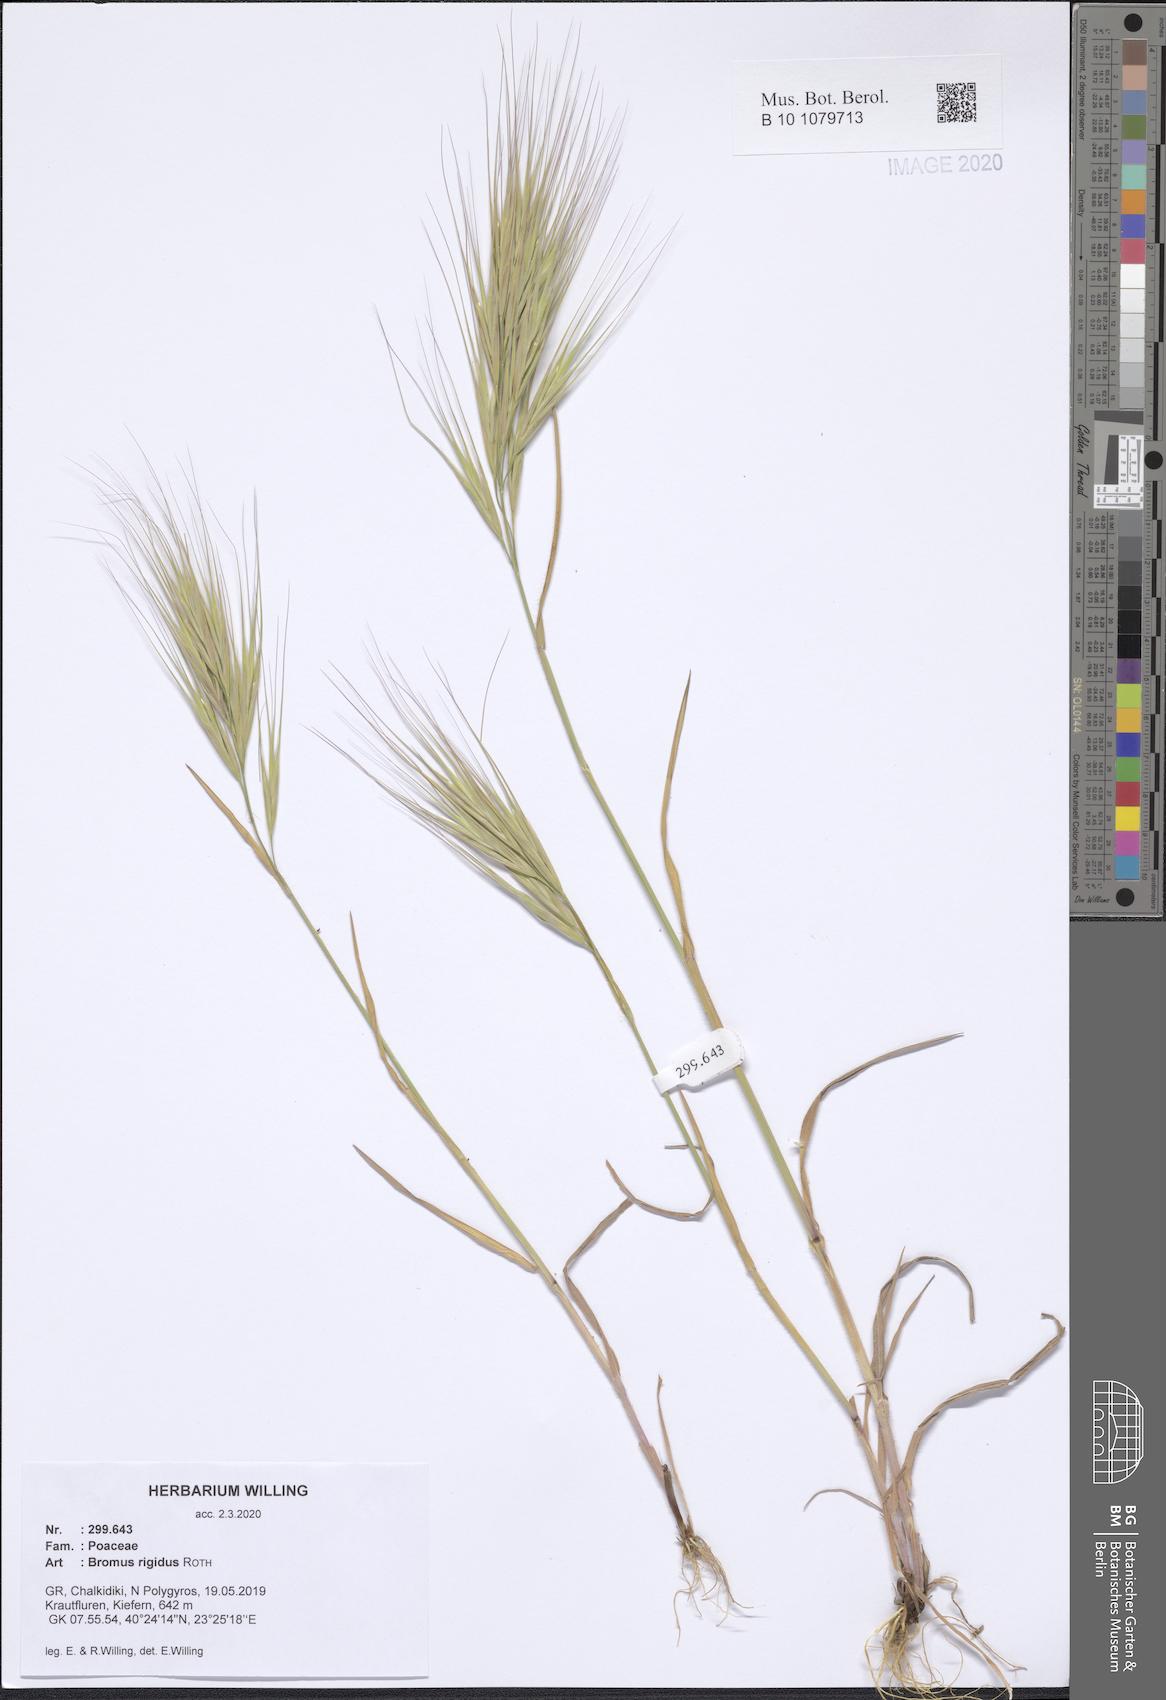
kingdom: Plantae
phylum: Tracheophyta
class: Liliopsida
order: Poales
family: Poaceae
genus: Bromus
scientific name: Bromus rigidus
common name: Ripgut brome
